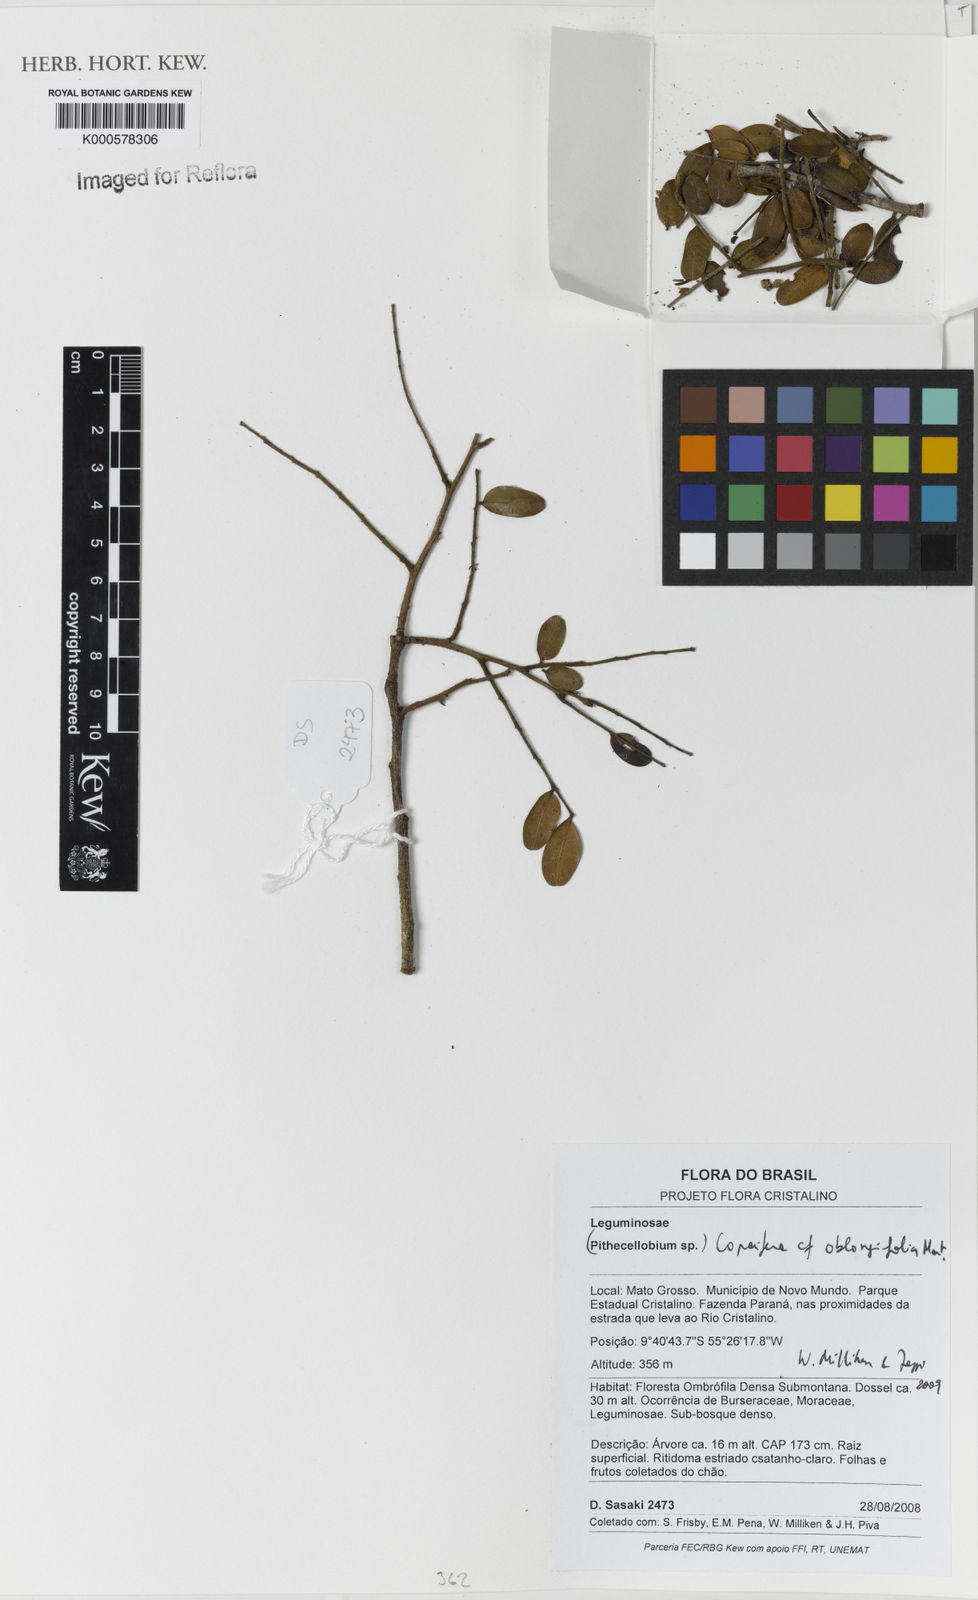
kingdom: Plantae
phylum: Tracheophyta
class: Magnoliopsida
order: Fabales
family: Fabaceae
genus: Copaifera
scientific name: Copaifera
